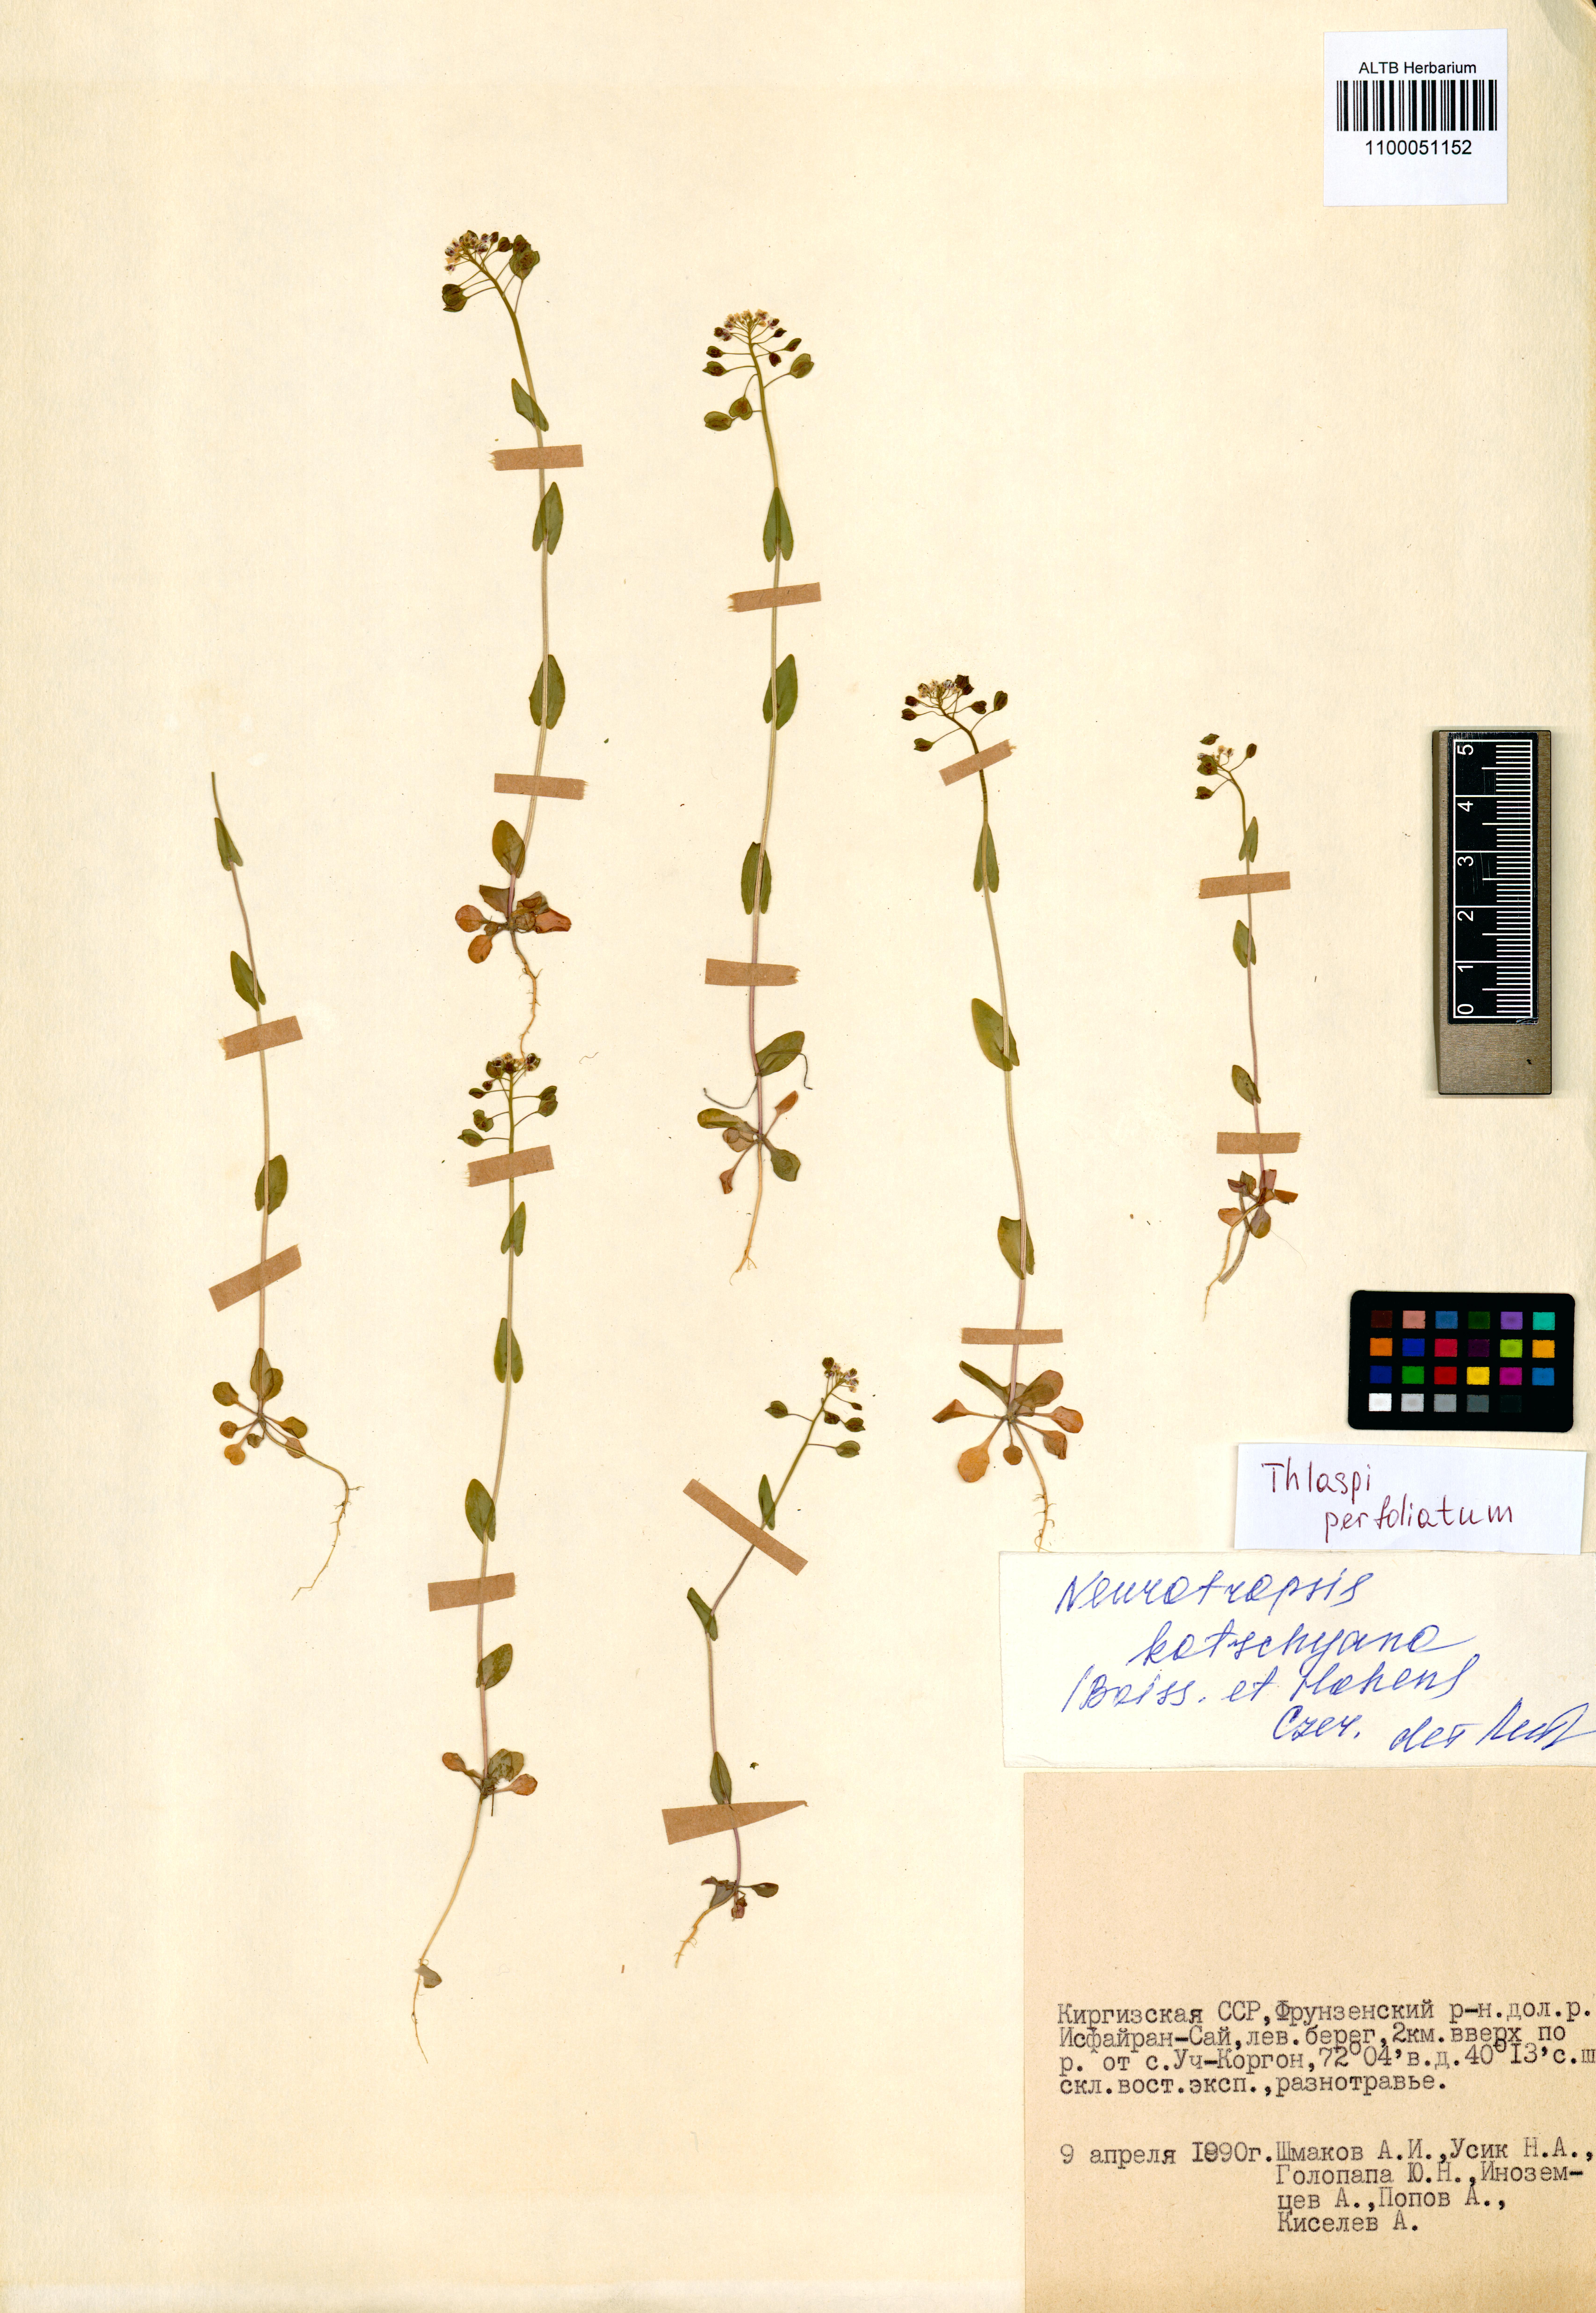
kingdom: Plantae
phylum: Tracheophyta
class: Magnoliopsida
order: Brassicales
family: Brassicaceae
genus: Noccaea
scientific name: Noccaea perfoliata
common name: Perfoliate pennycress
